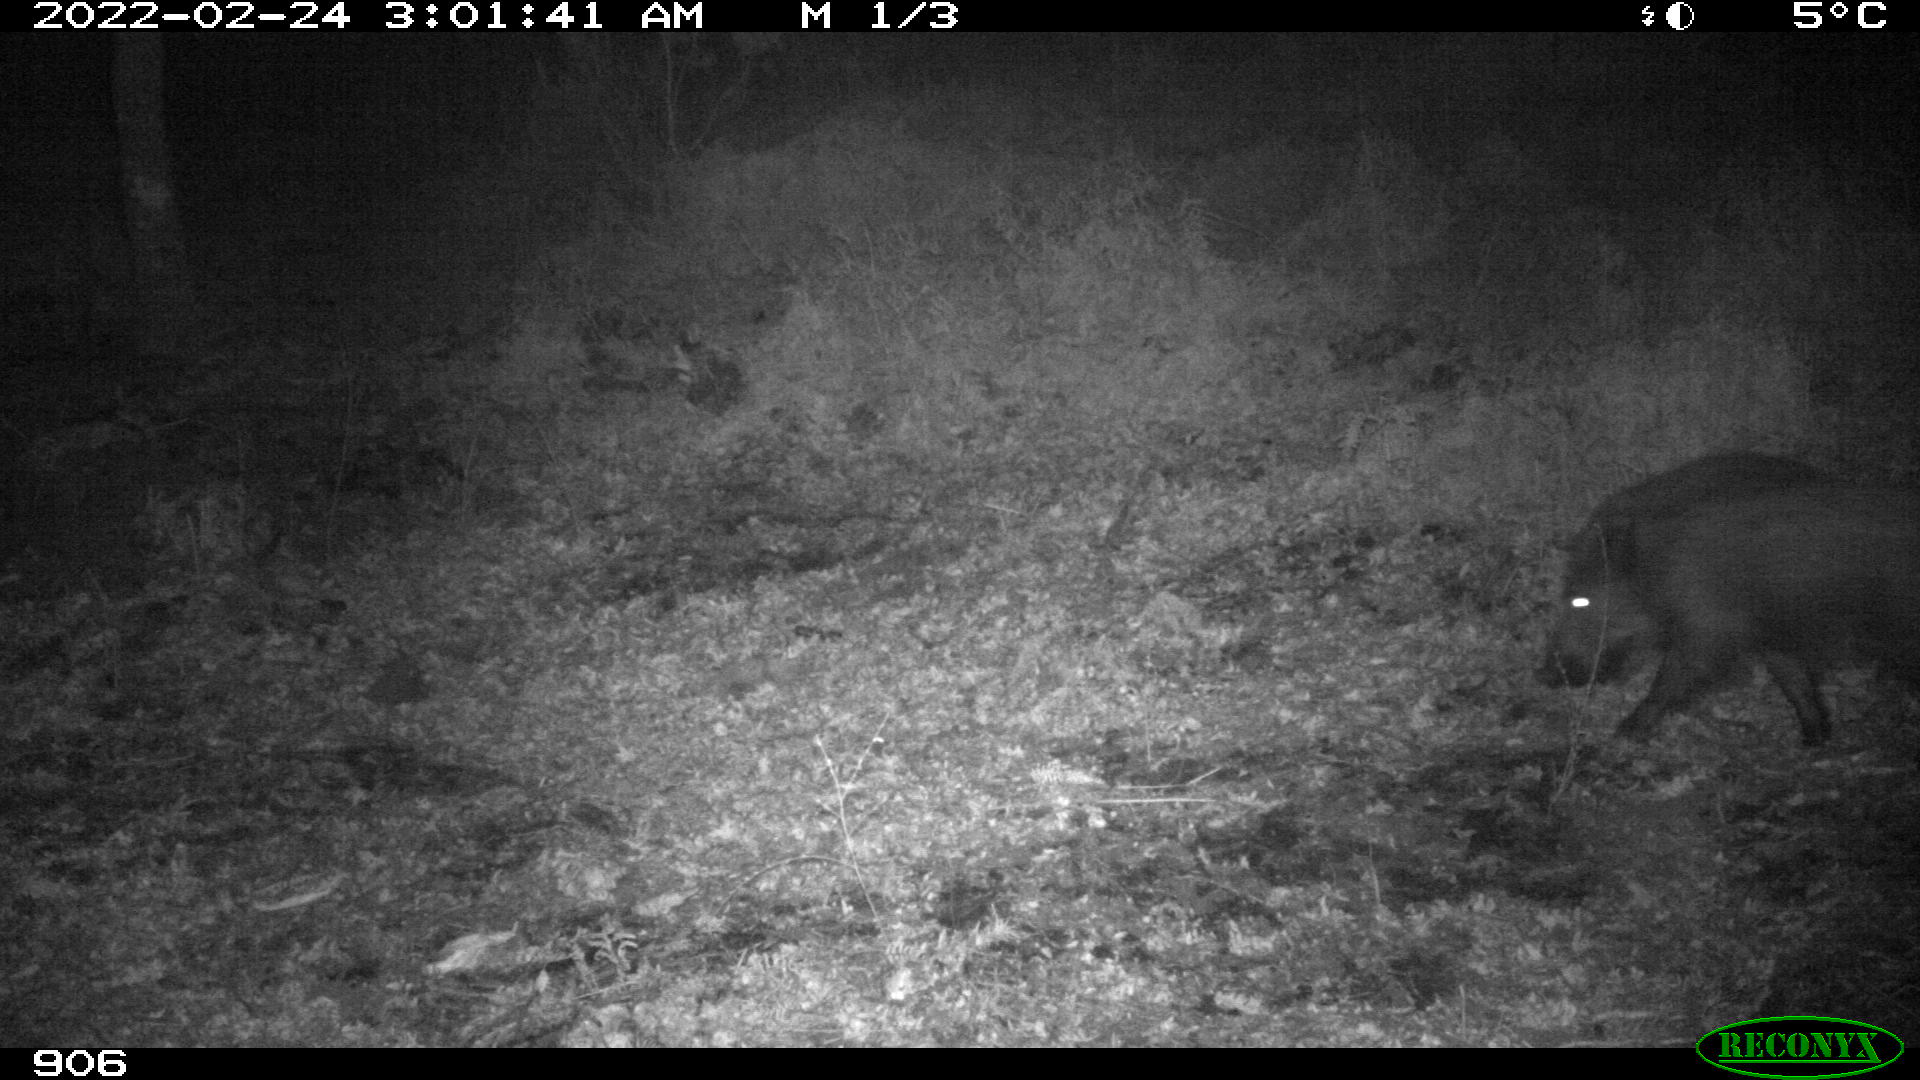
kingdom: Animalia
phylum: Chordata
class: Mammalia
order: Artiodactyla
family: Suidae
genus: Sus
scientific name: Sus scrofa
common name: Wild boar
